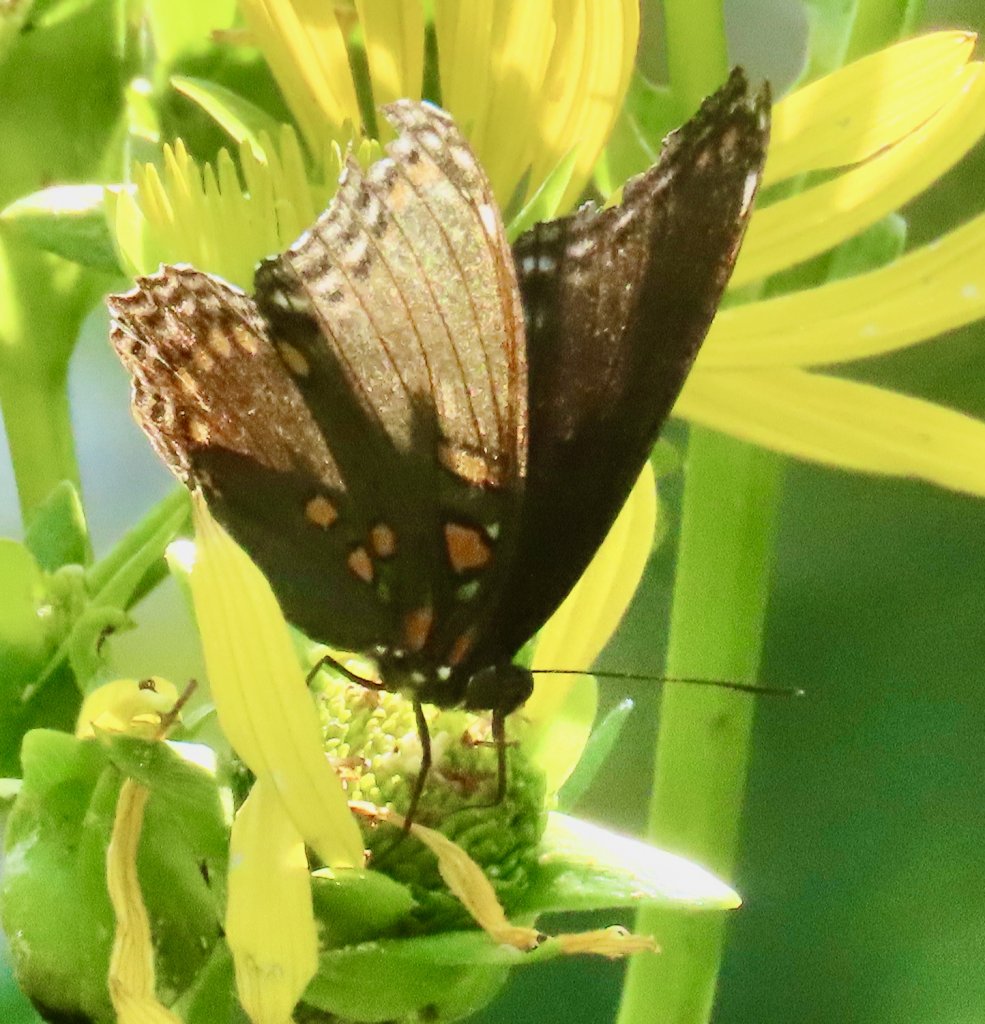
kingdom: Animalia
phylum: Arthropoda
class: Insecta
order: Lepidoptera
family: Nymphalidae
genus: Limenitis
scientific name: Limenitis arthemis
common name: Red-spotted Admiral
